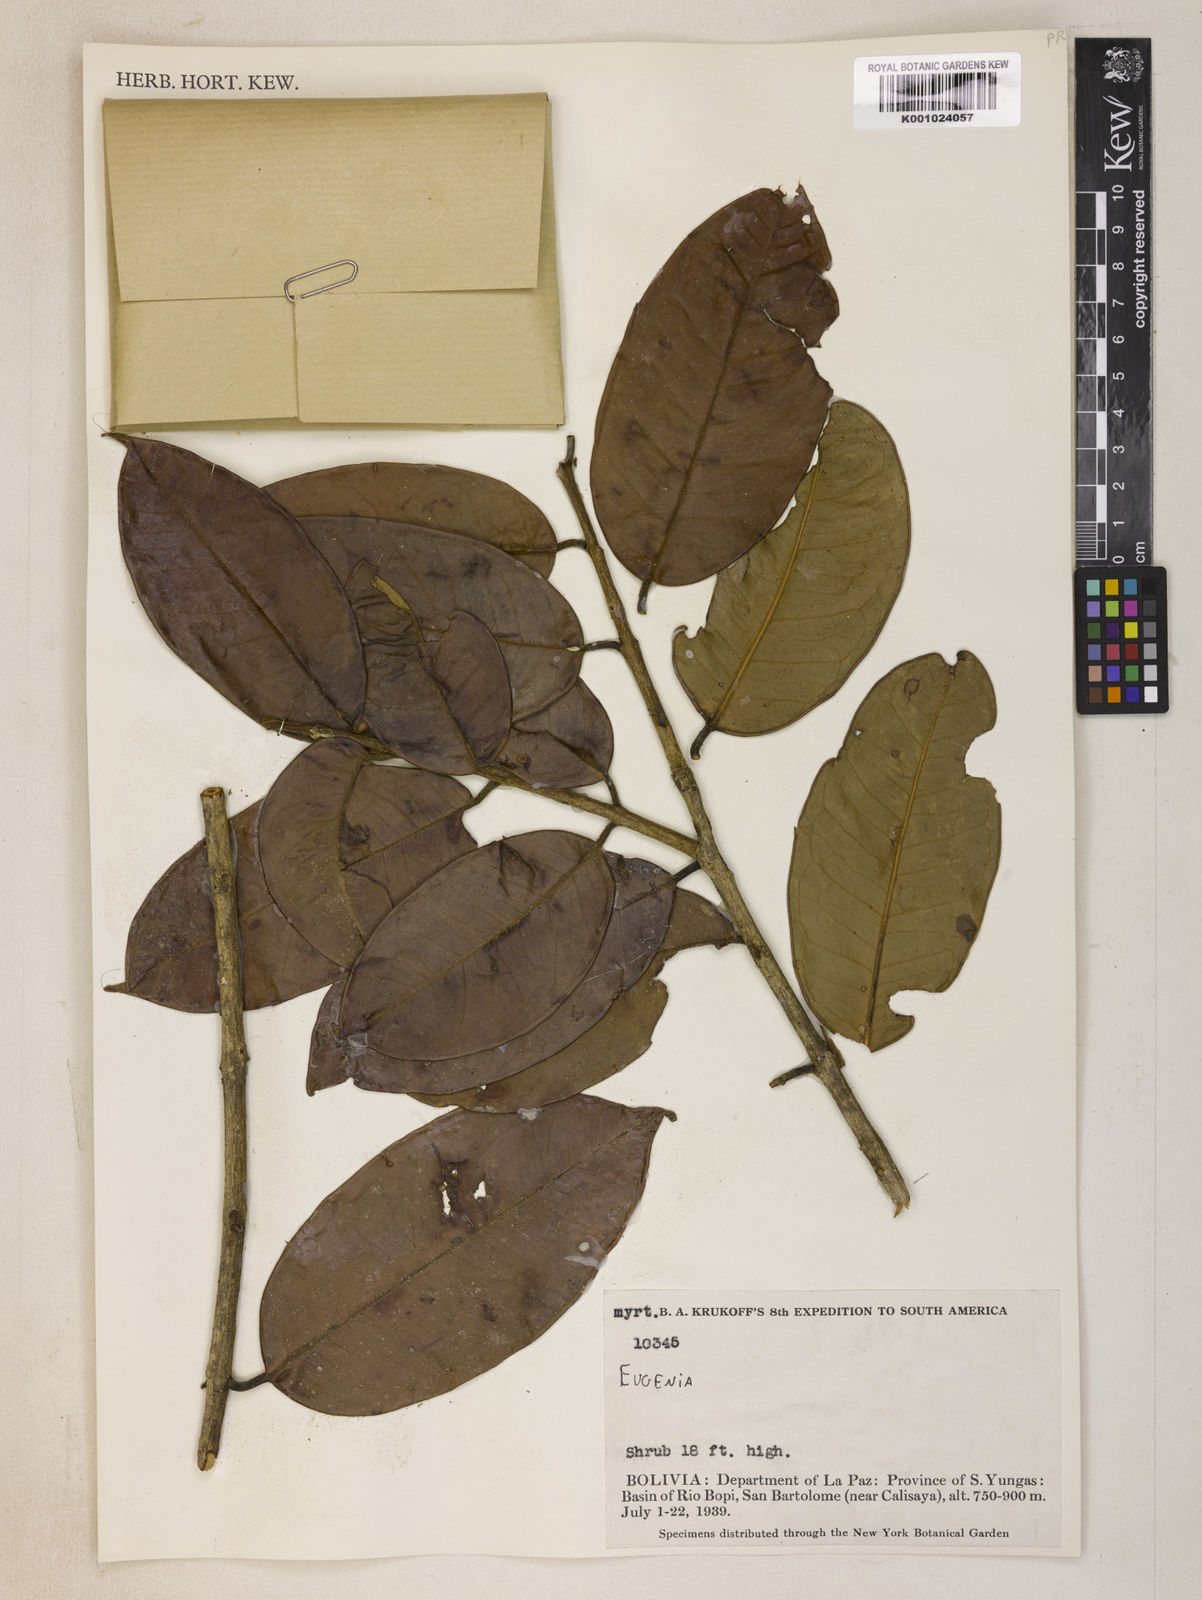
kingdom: Plantae
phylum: Tracheophyta
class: Magnoliopsida
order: Myrtales
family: Myrtaceae
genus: Eugenia
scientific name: Eugenia
